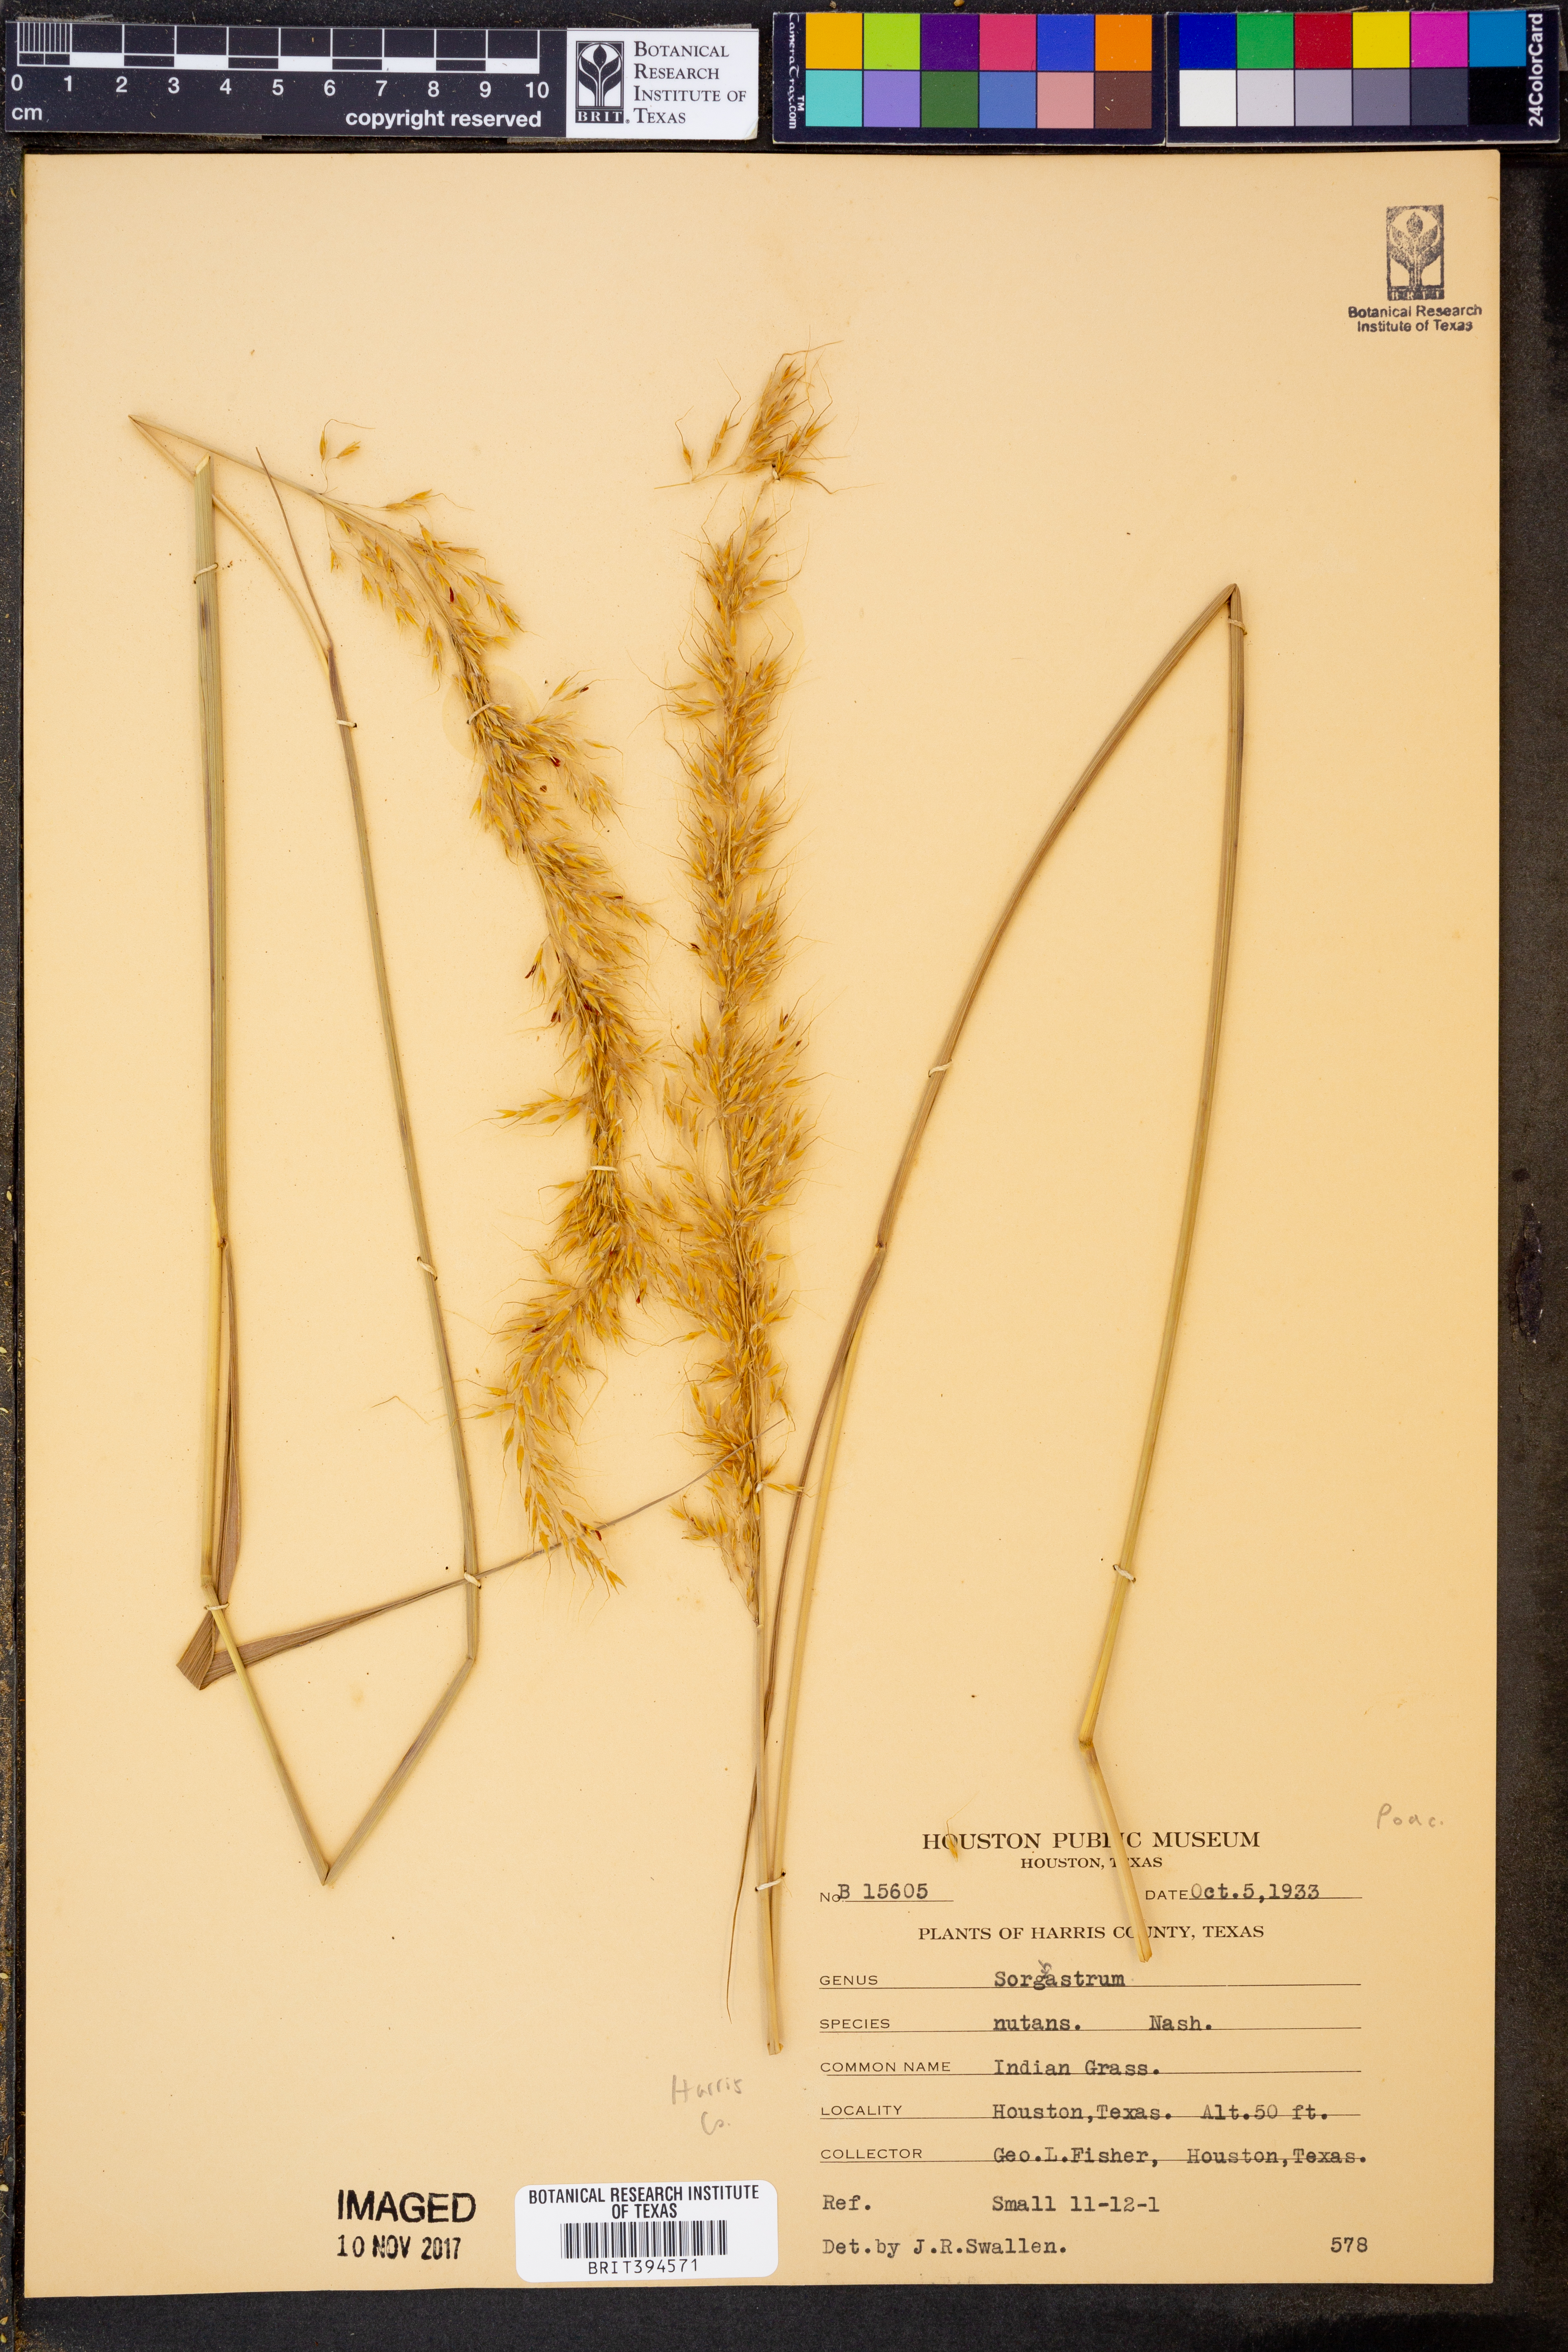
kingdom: Plantae
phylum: Tracheophyta
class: Liliopsida
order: Poales
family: Poaceae
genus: Sorghastrum
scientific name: Sorghastrum nutans
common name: Indian grass
